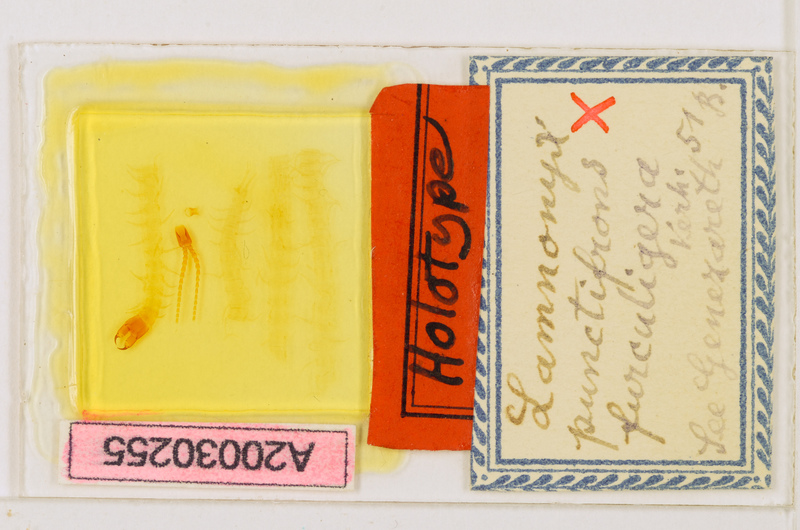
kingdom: Animalia
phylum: Arthropoda
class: Chilopoda
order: Geophilomorpha
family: Mecistocephalidae
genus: Mecistocephalus
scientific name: Mecistocephalus
